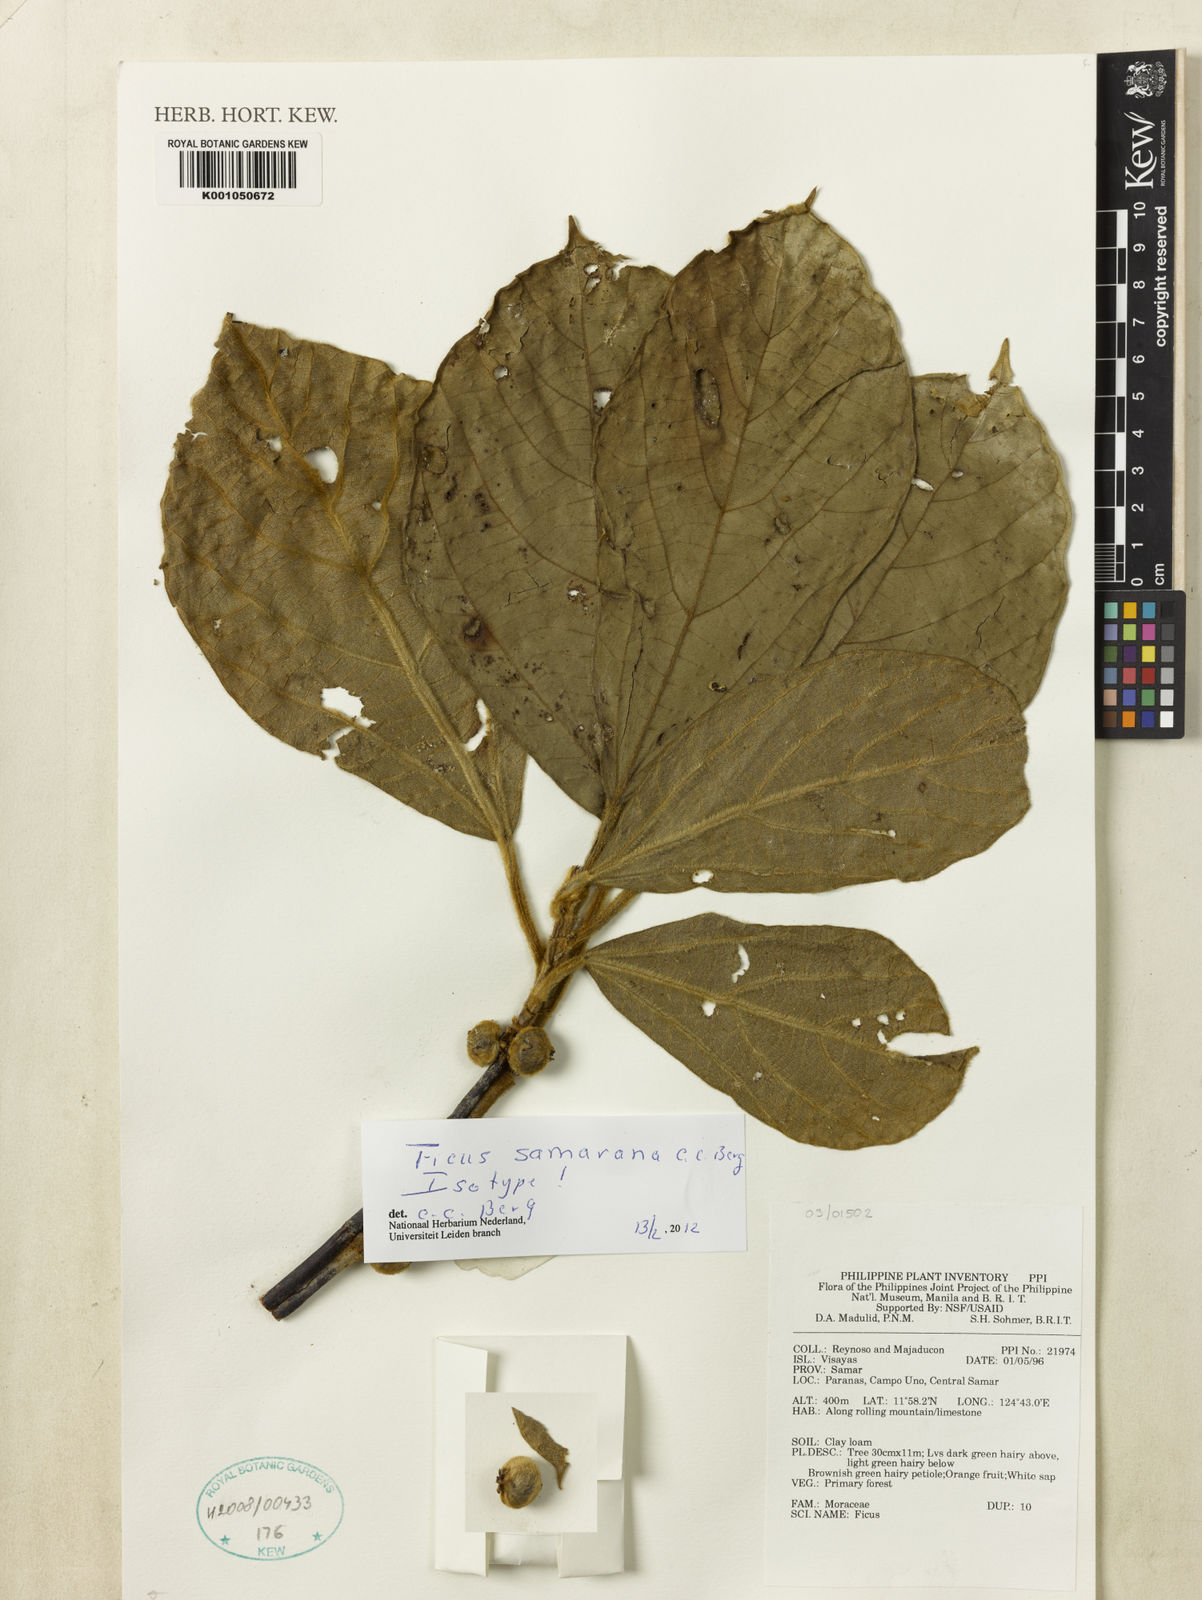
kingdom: Plantae
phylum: Tracheophyta
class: Magnoliopsida
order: Rosales
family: Moraceae
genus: Ficus
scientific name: Ficus samarana
